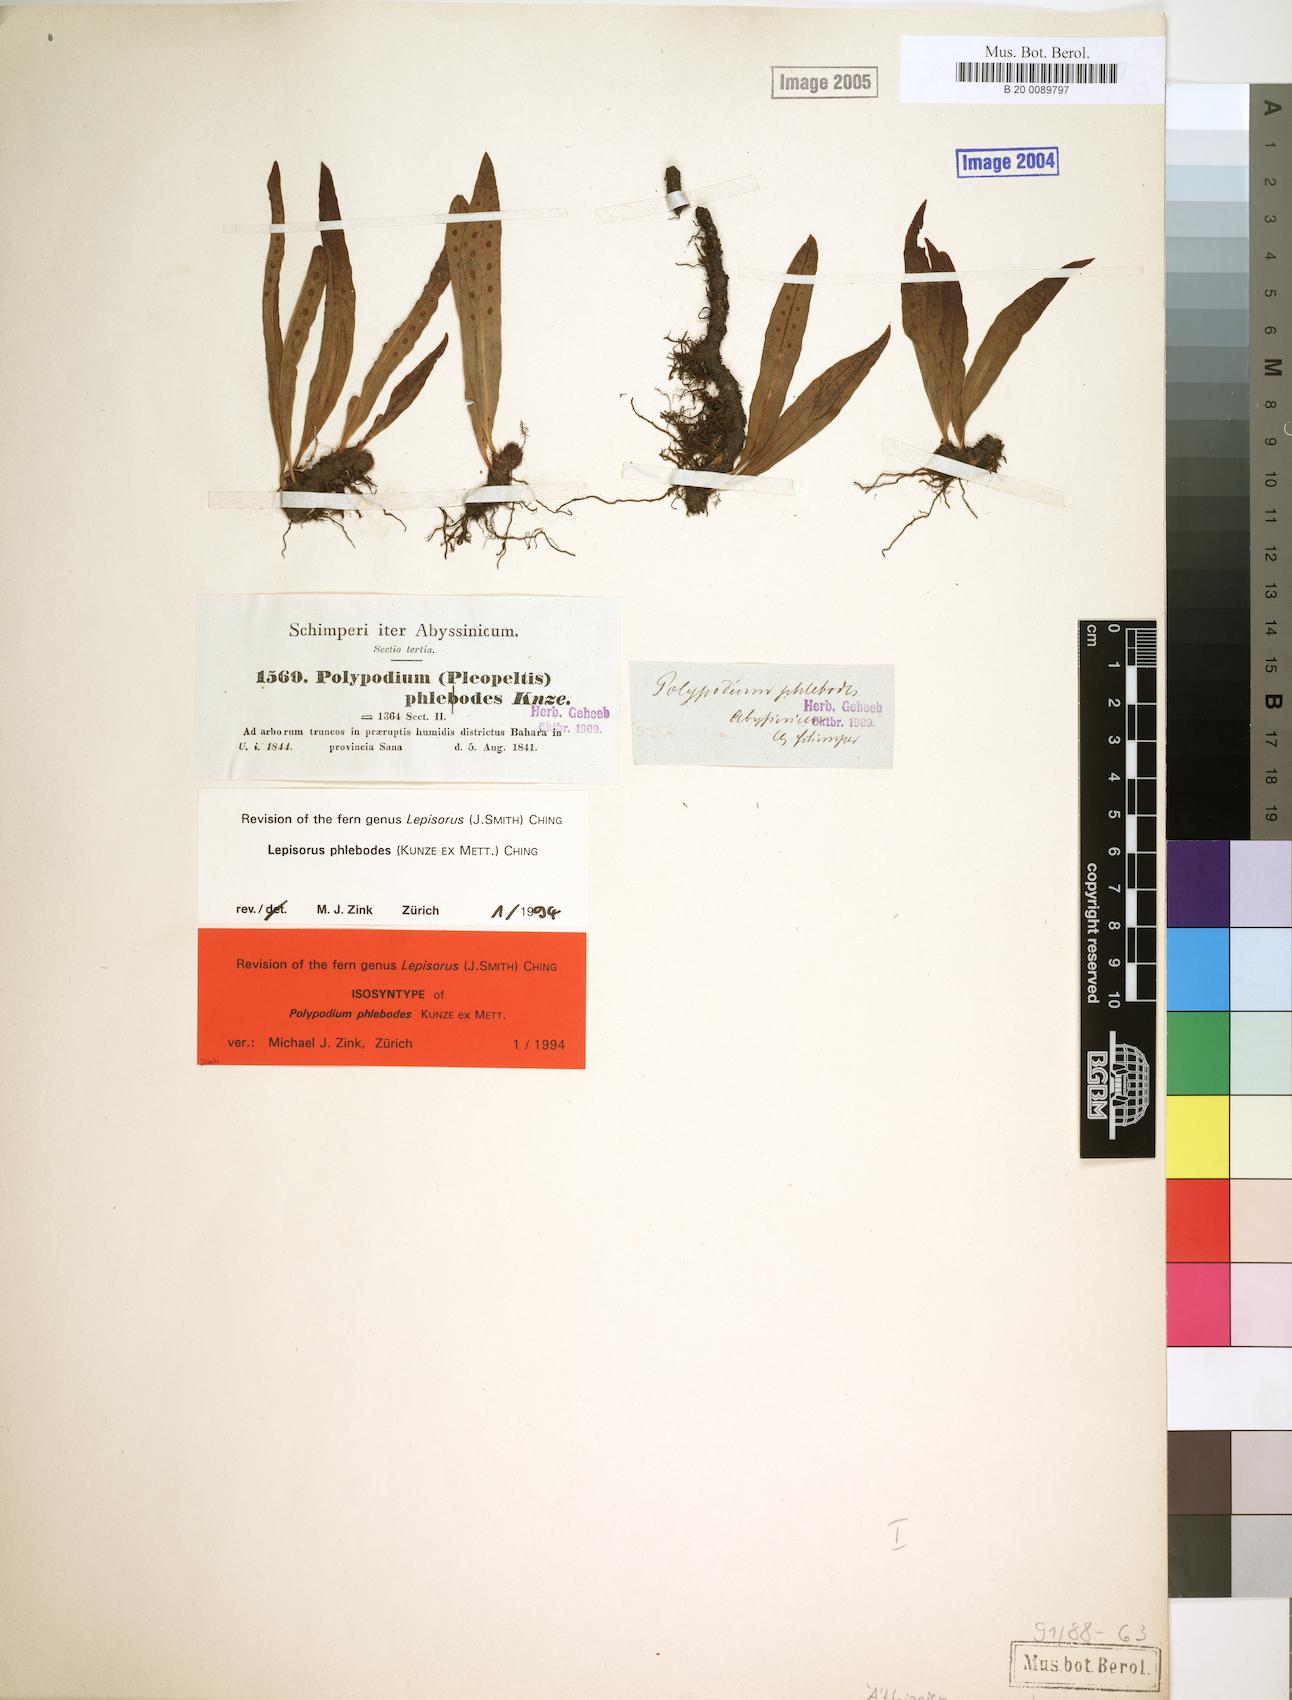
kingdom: Plantae
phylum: Tracheophyta
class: Polypodiopsida
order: Polypodiales
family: Polypodiaceae
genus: Lepisorus
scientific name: Lepisorus excavatus
